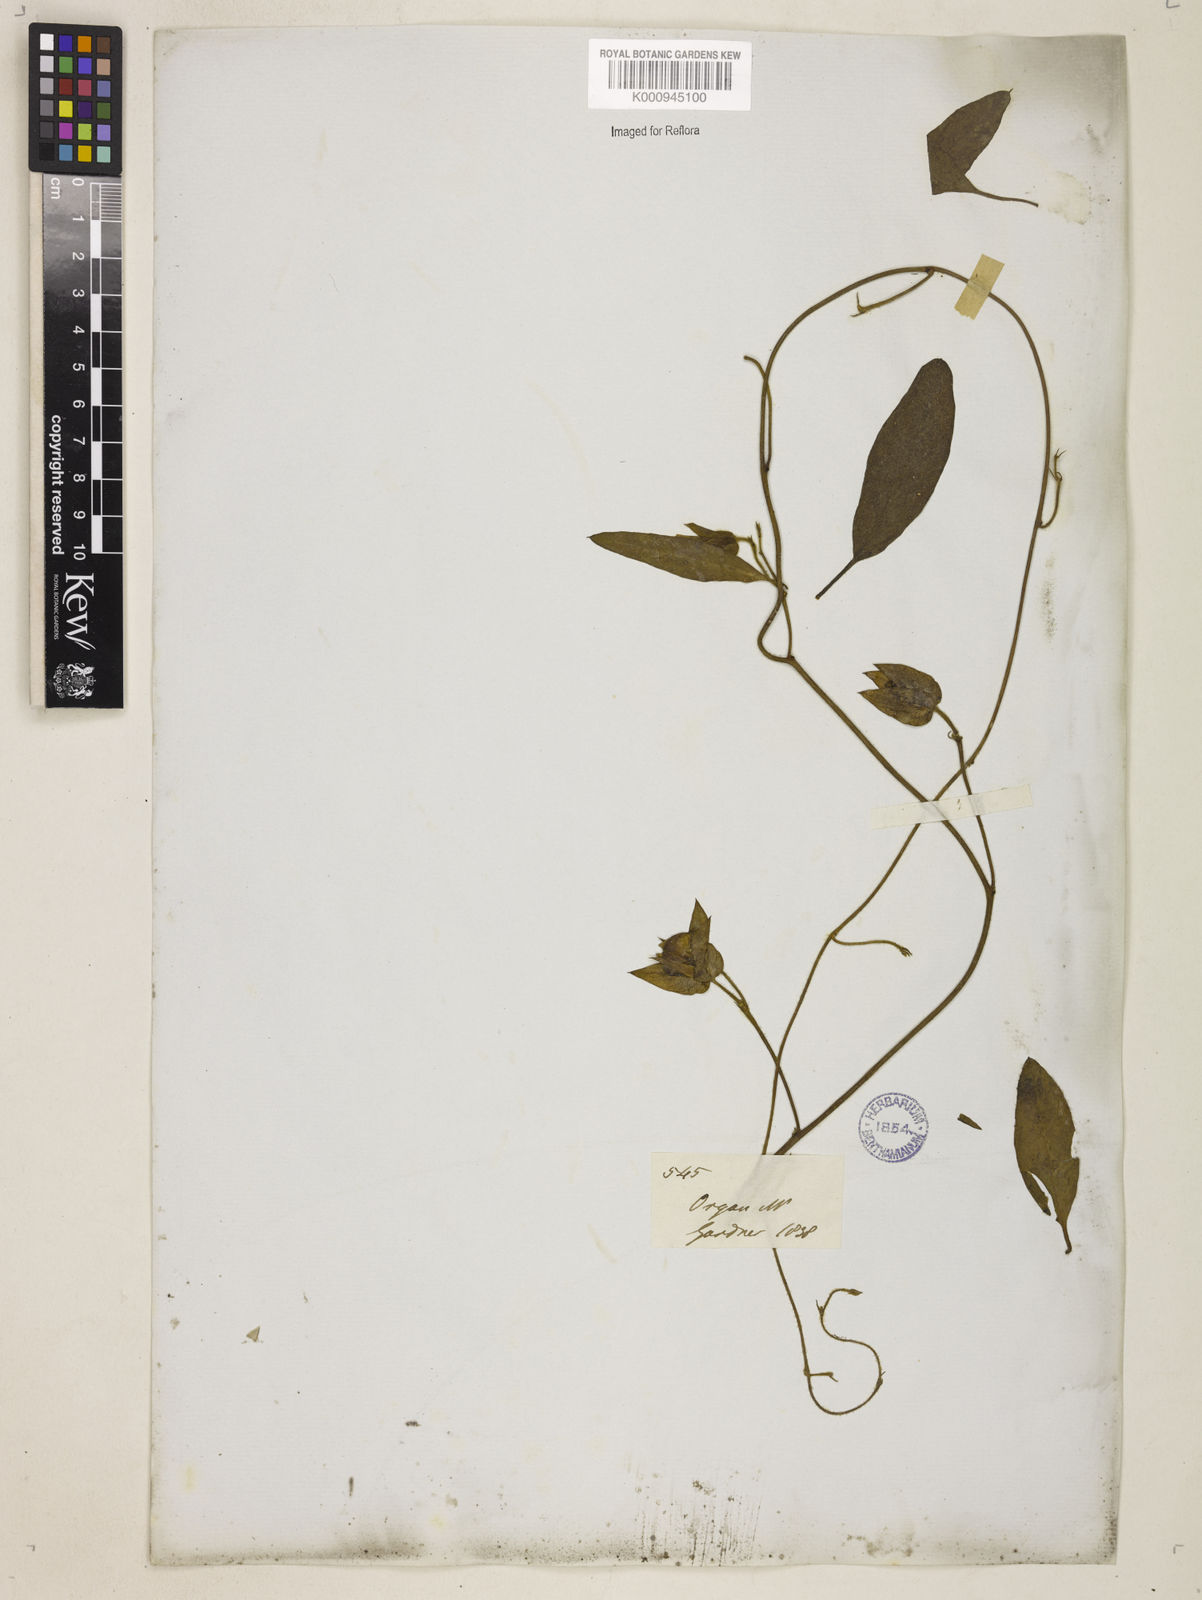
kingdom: Plantae
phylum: Tracheophyta
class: Magnoliopsida
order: Solanales
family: Convolvulaceae
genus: Aniseia
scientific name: Aniseia martinicensis
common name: Kulayadambu
